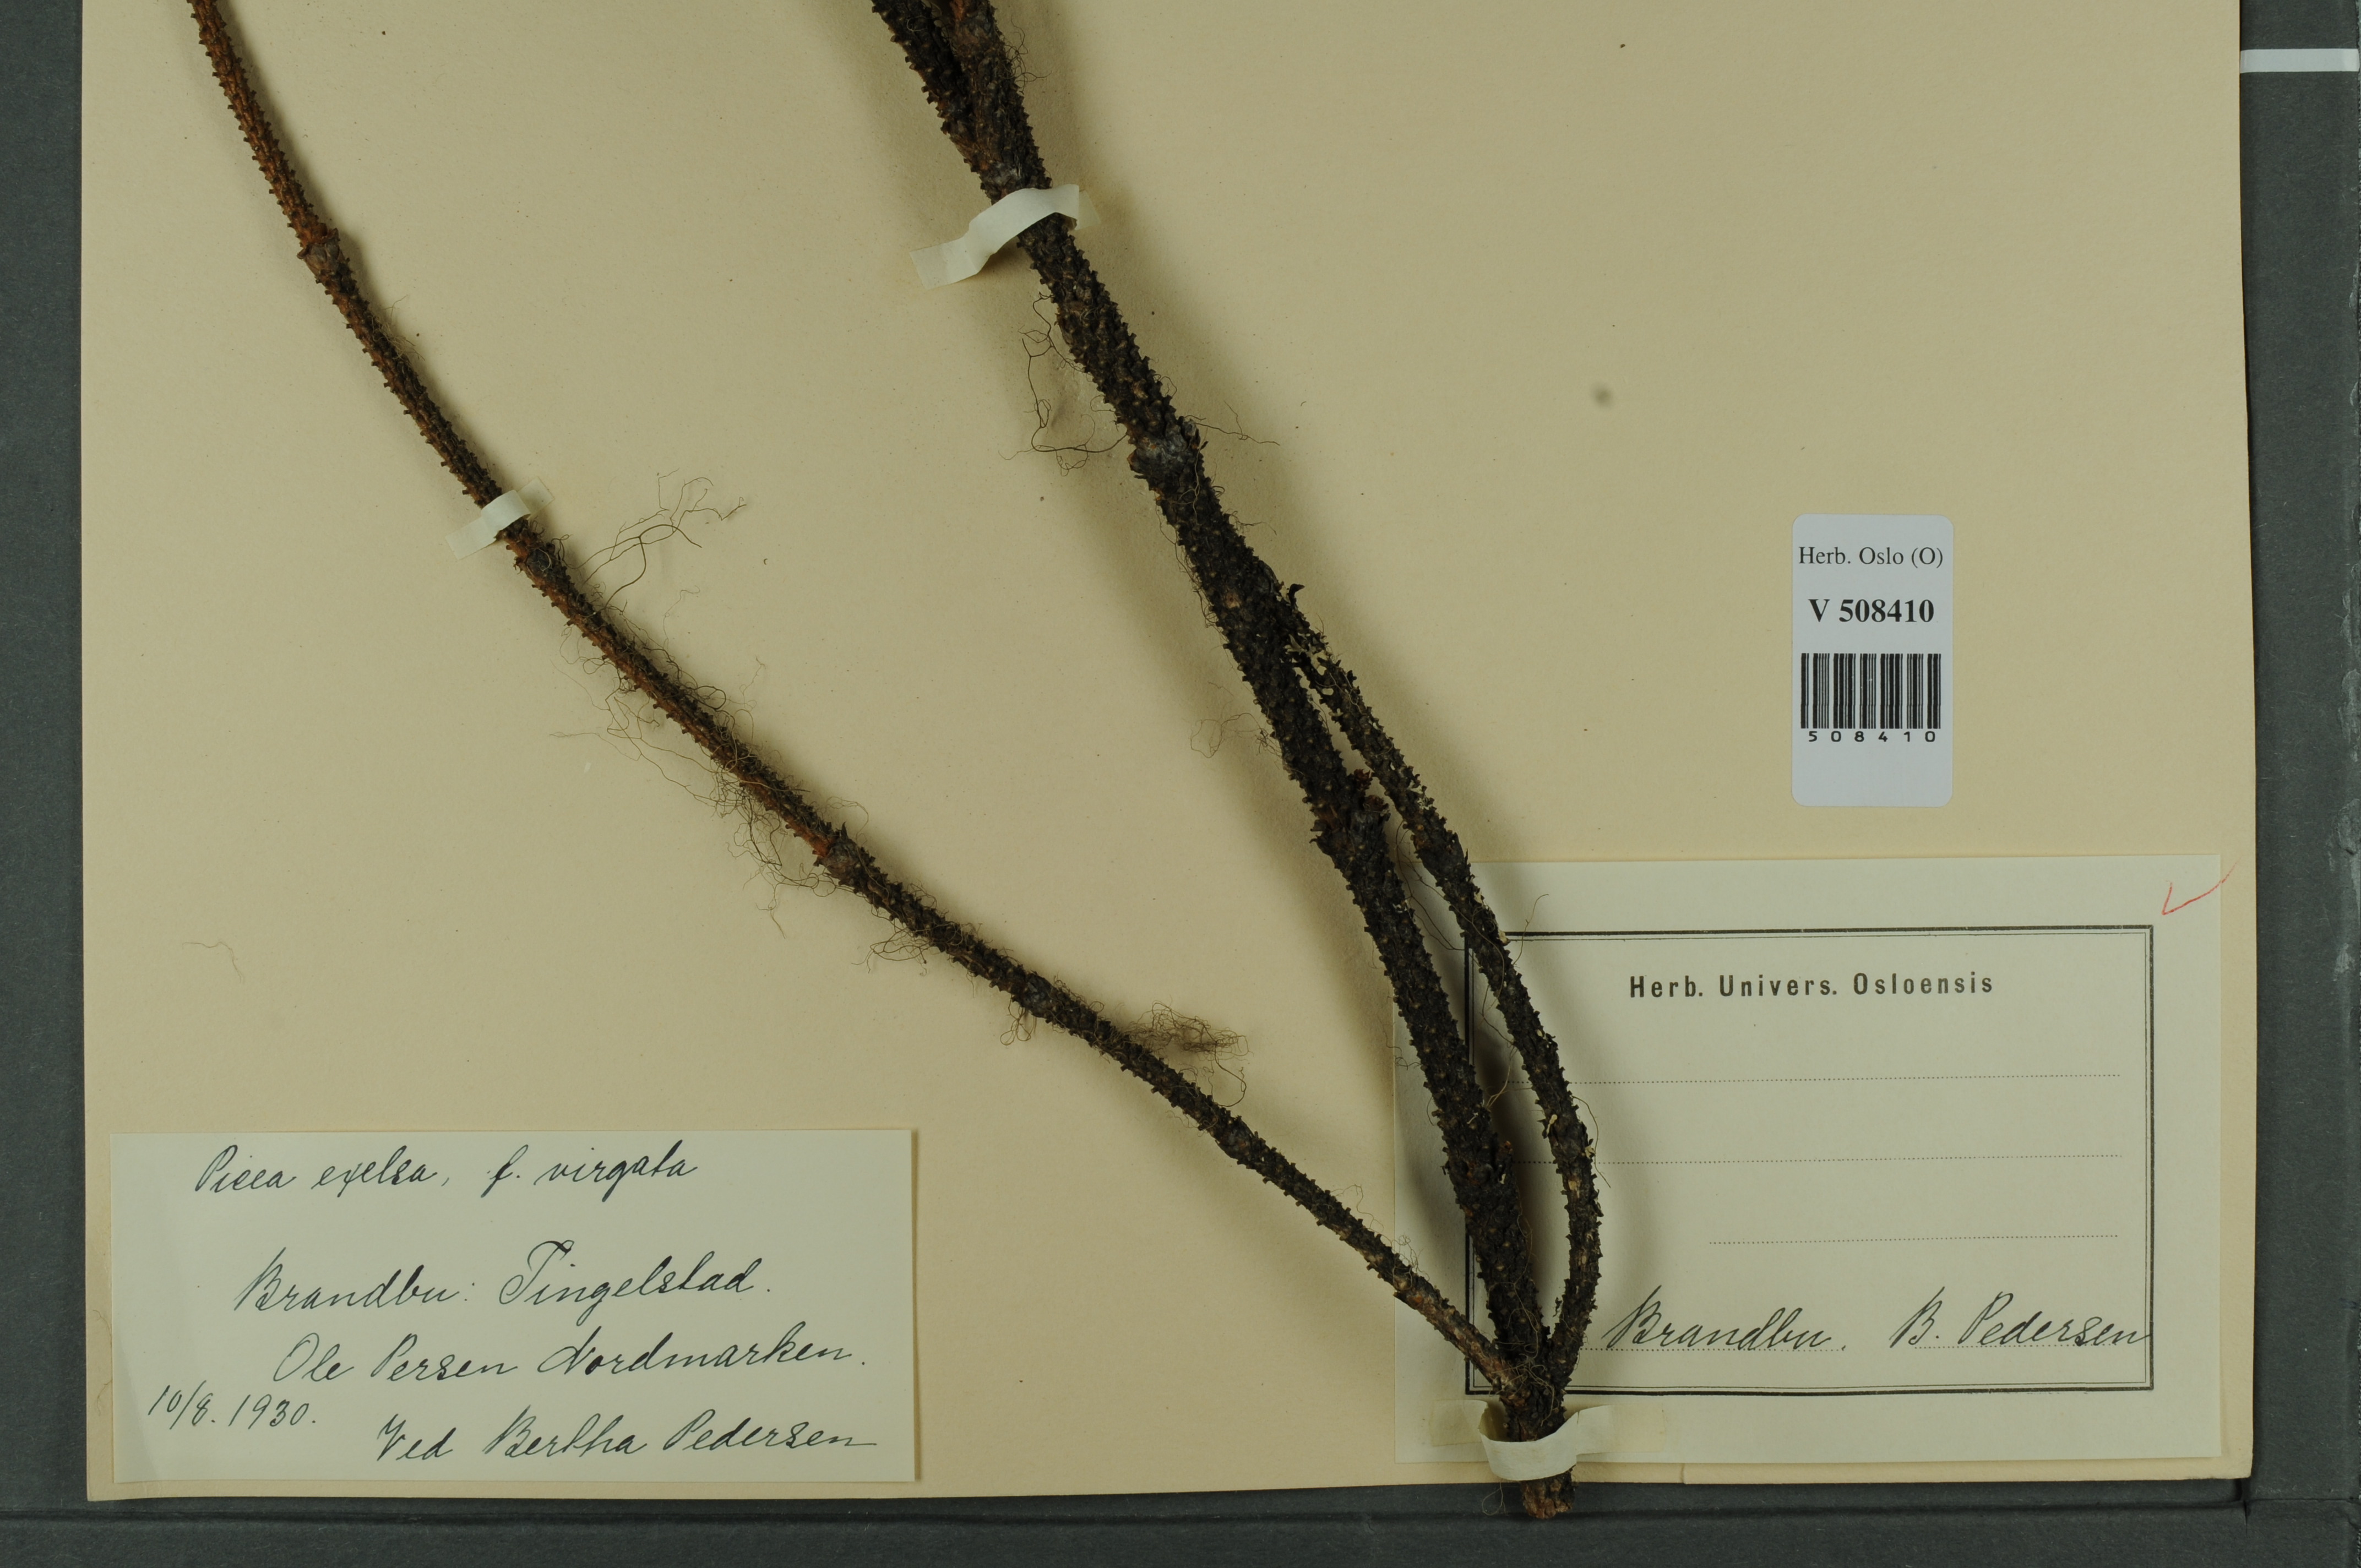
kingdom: Plantae
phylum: Tracheophyta
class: Pinopsida
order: Pinales
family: Pinaceae
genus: Picea
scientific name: Picea abies
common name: Norway spruce
